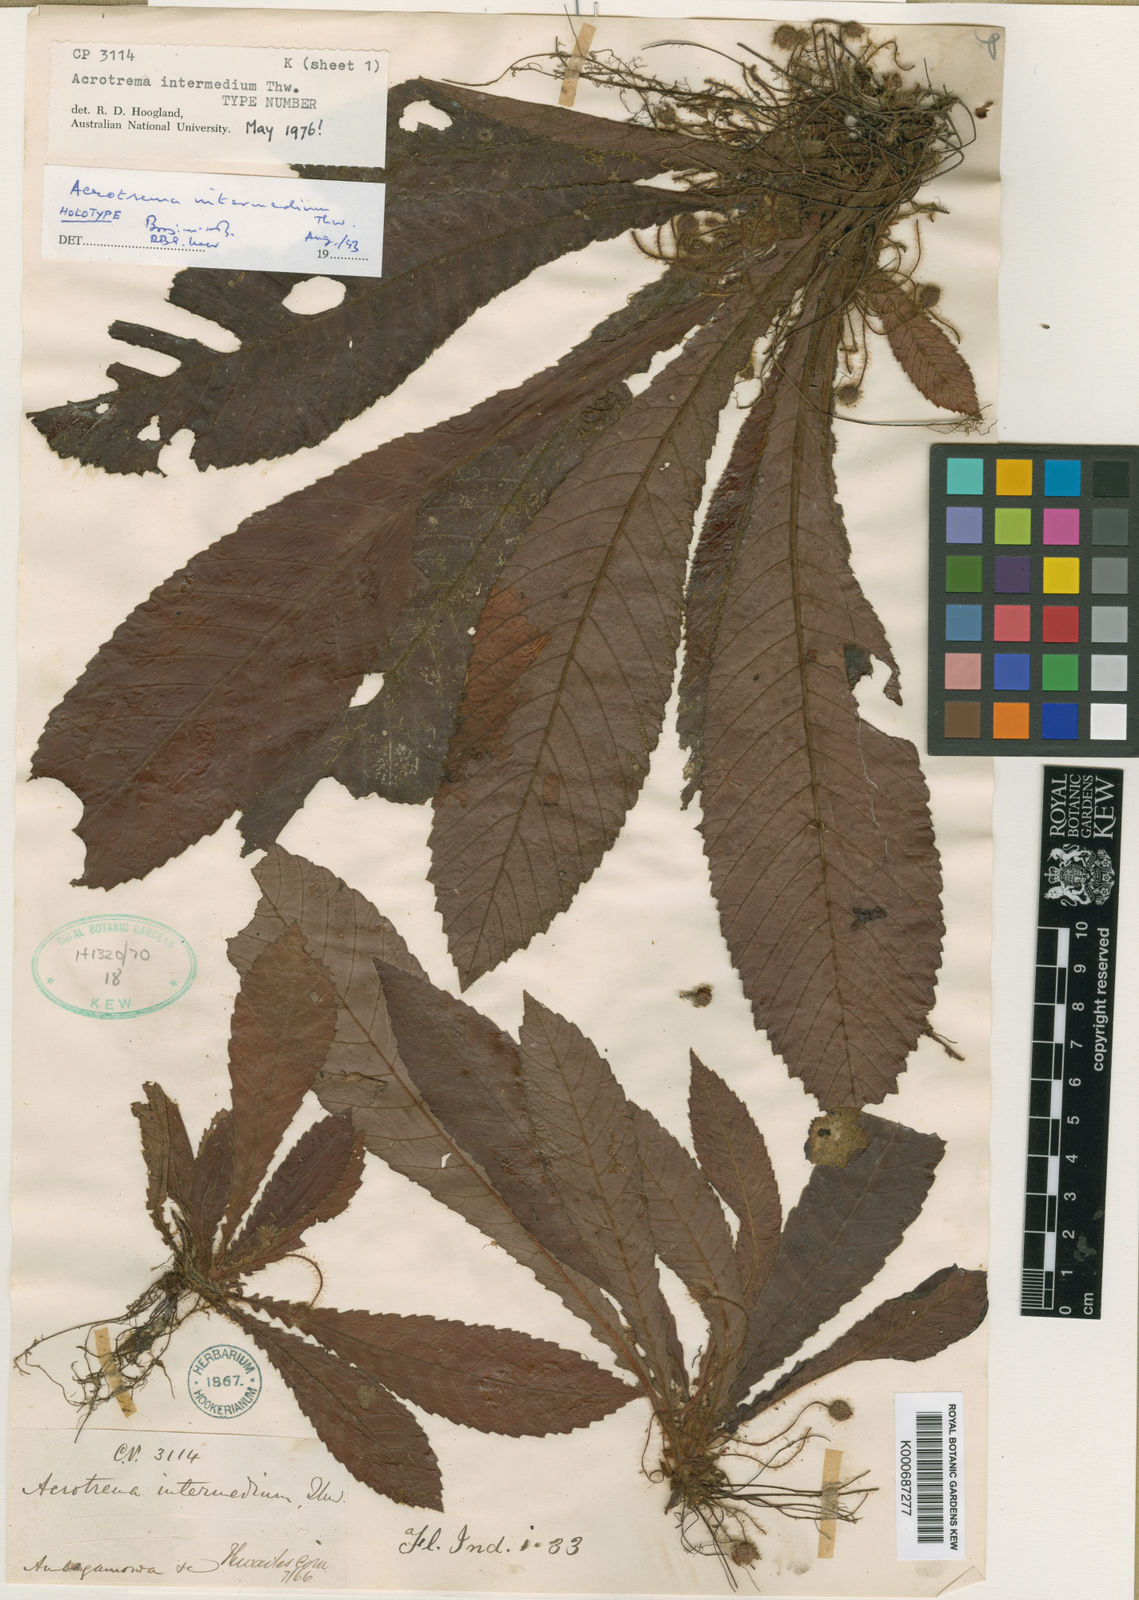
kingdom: Plantae
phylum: Tracheophyta
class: Magnoliopsida
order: Dilleniales
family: Dilleniaceae
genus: Acrotrema
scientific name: Acrotrema intermedium
